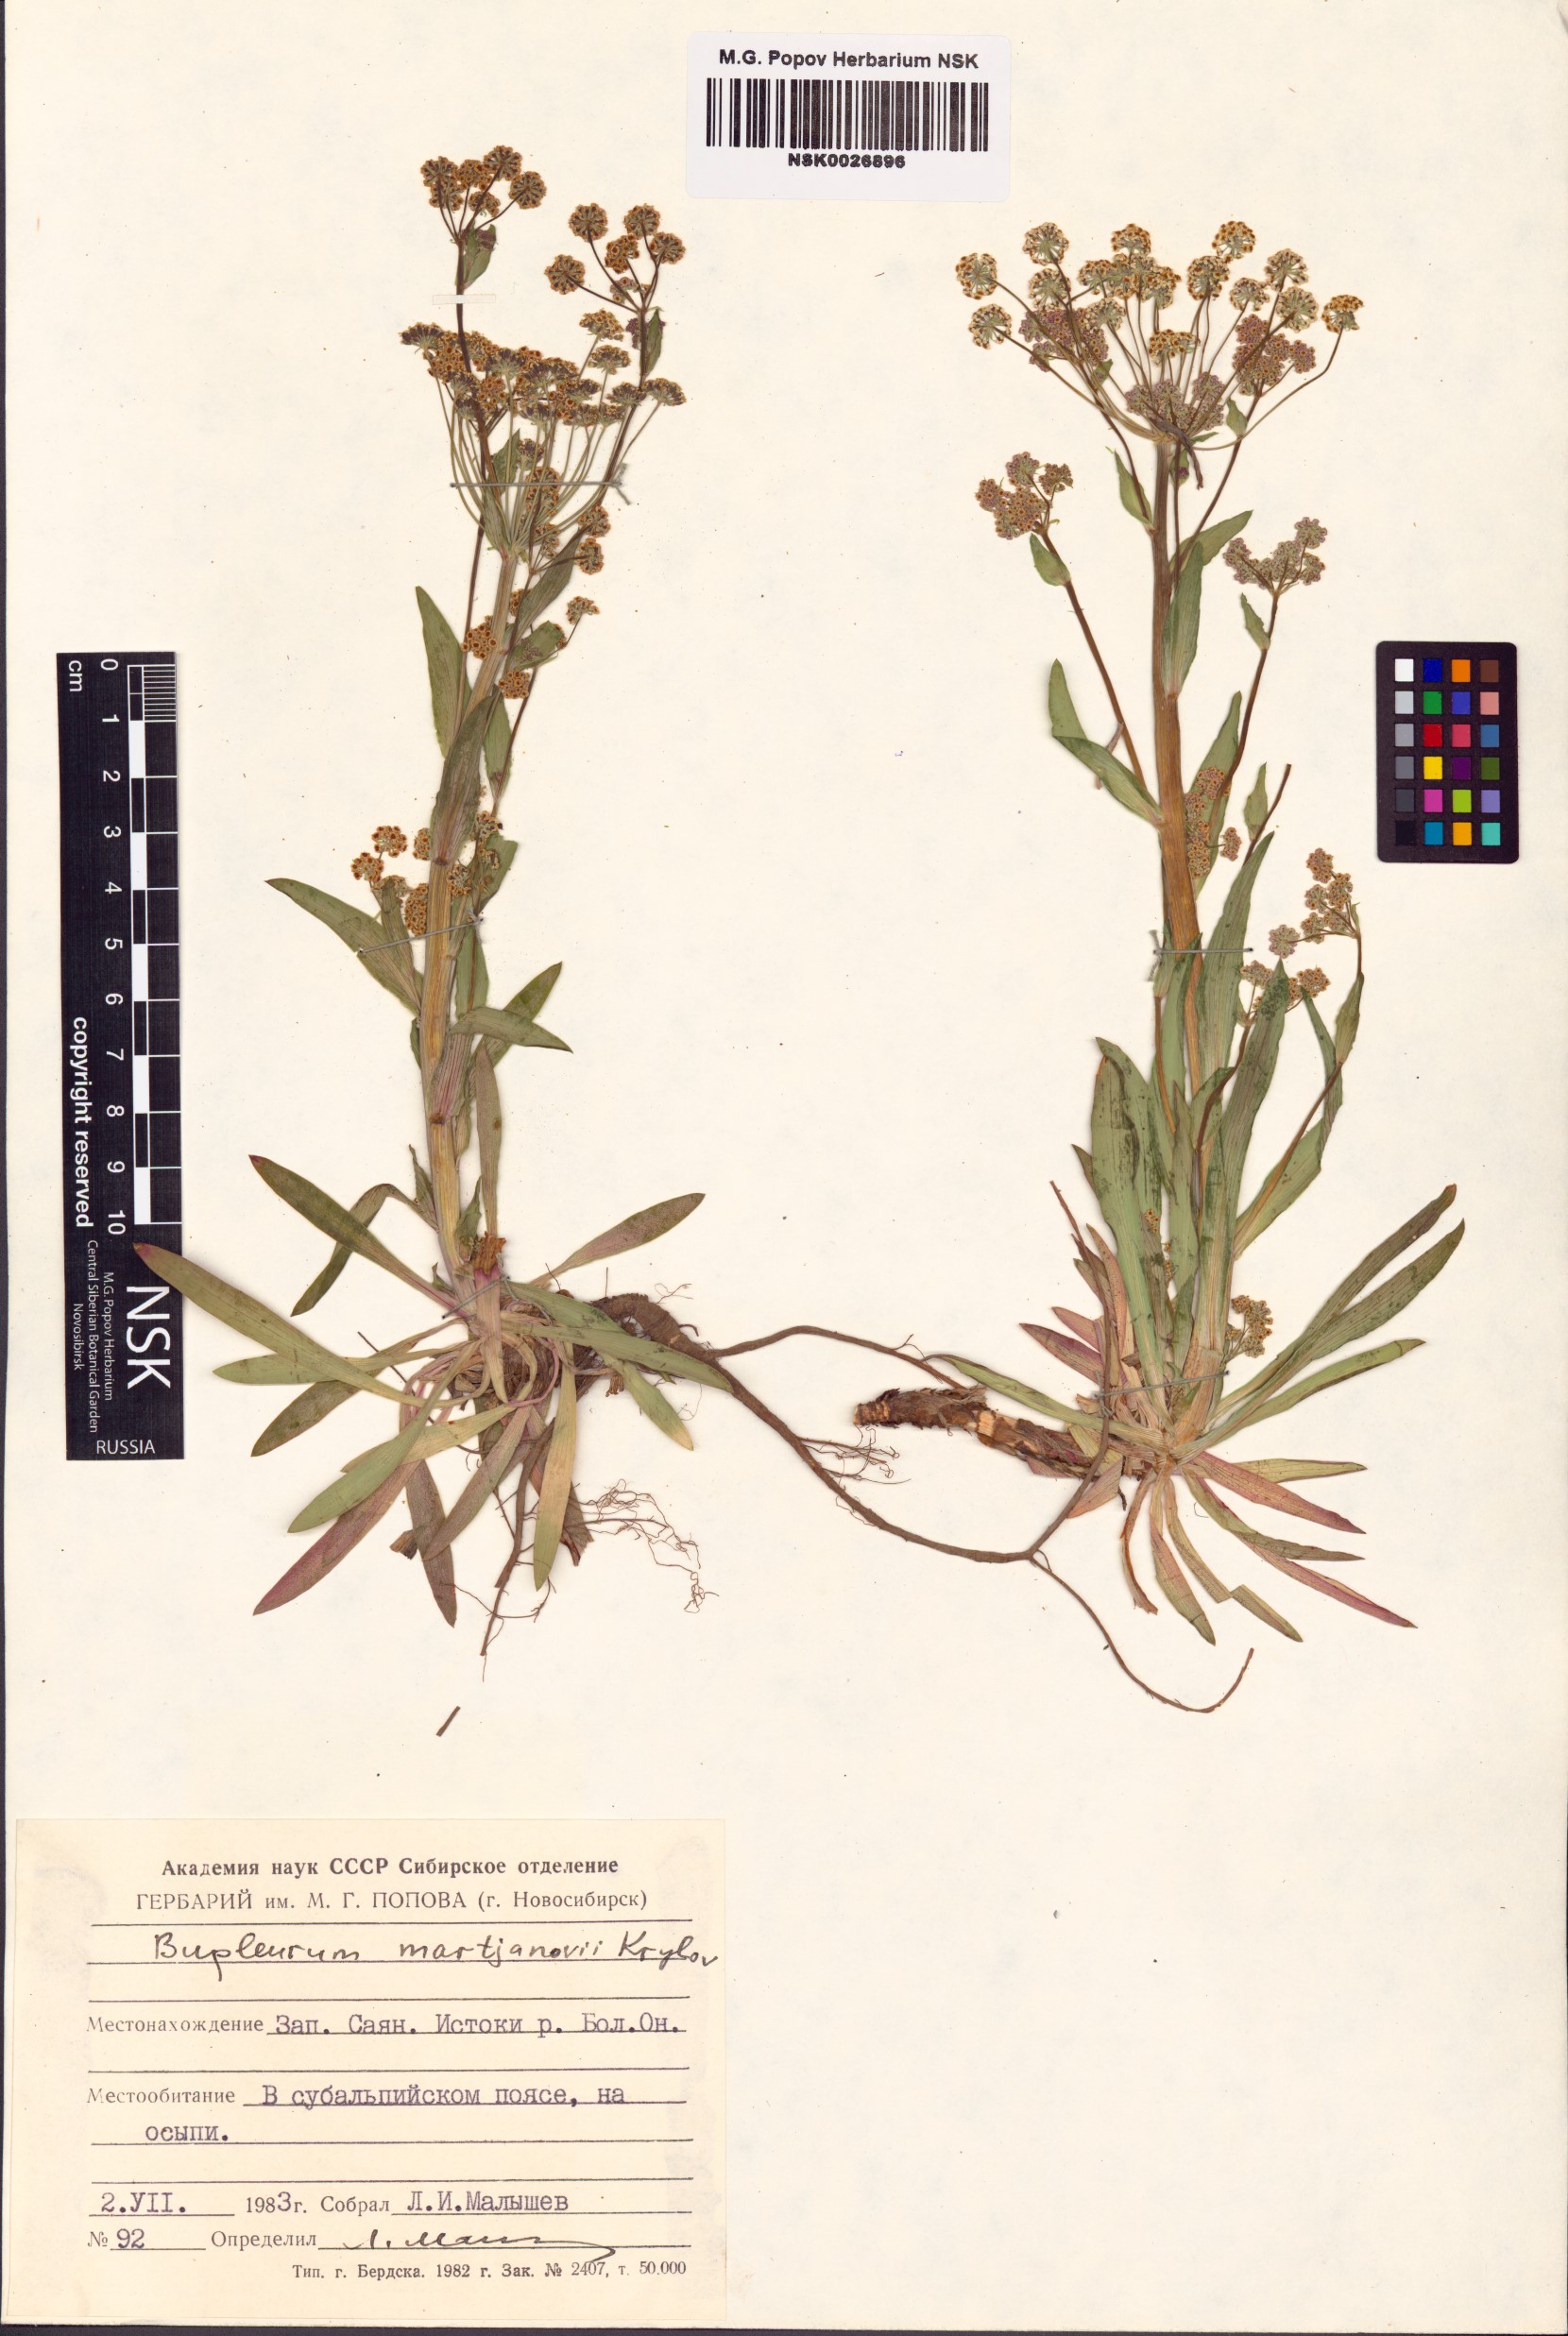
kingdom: Plantae
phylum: Tracheophyta
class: Magnoliopsida
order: Apiales
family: Apiaceae
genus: Bupleurum
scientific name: Bupleurum martjanovii
